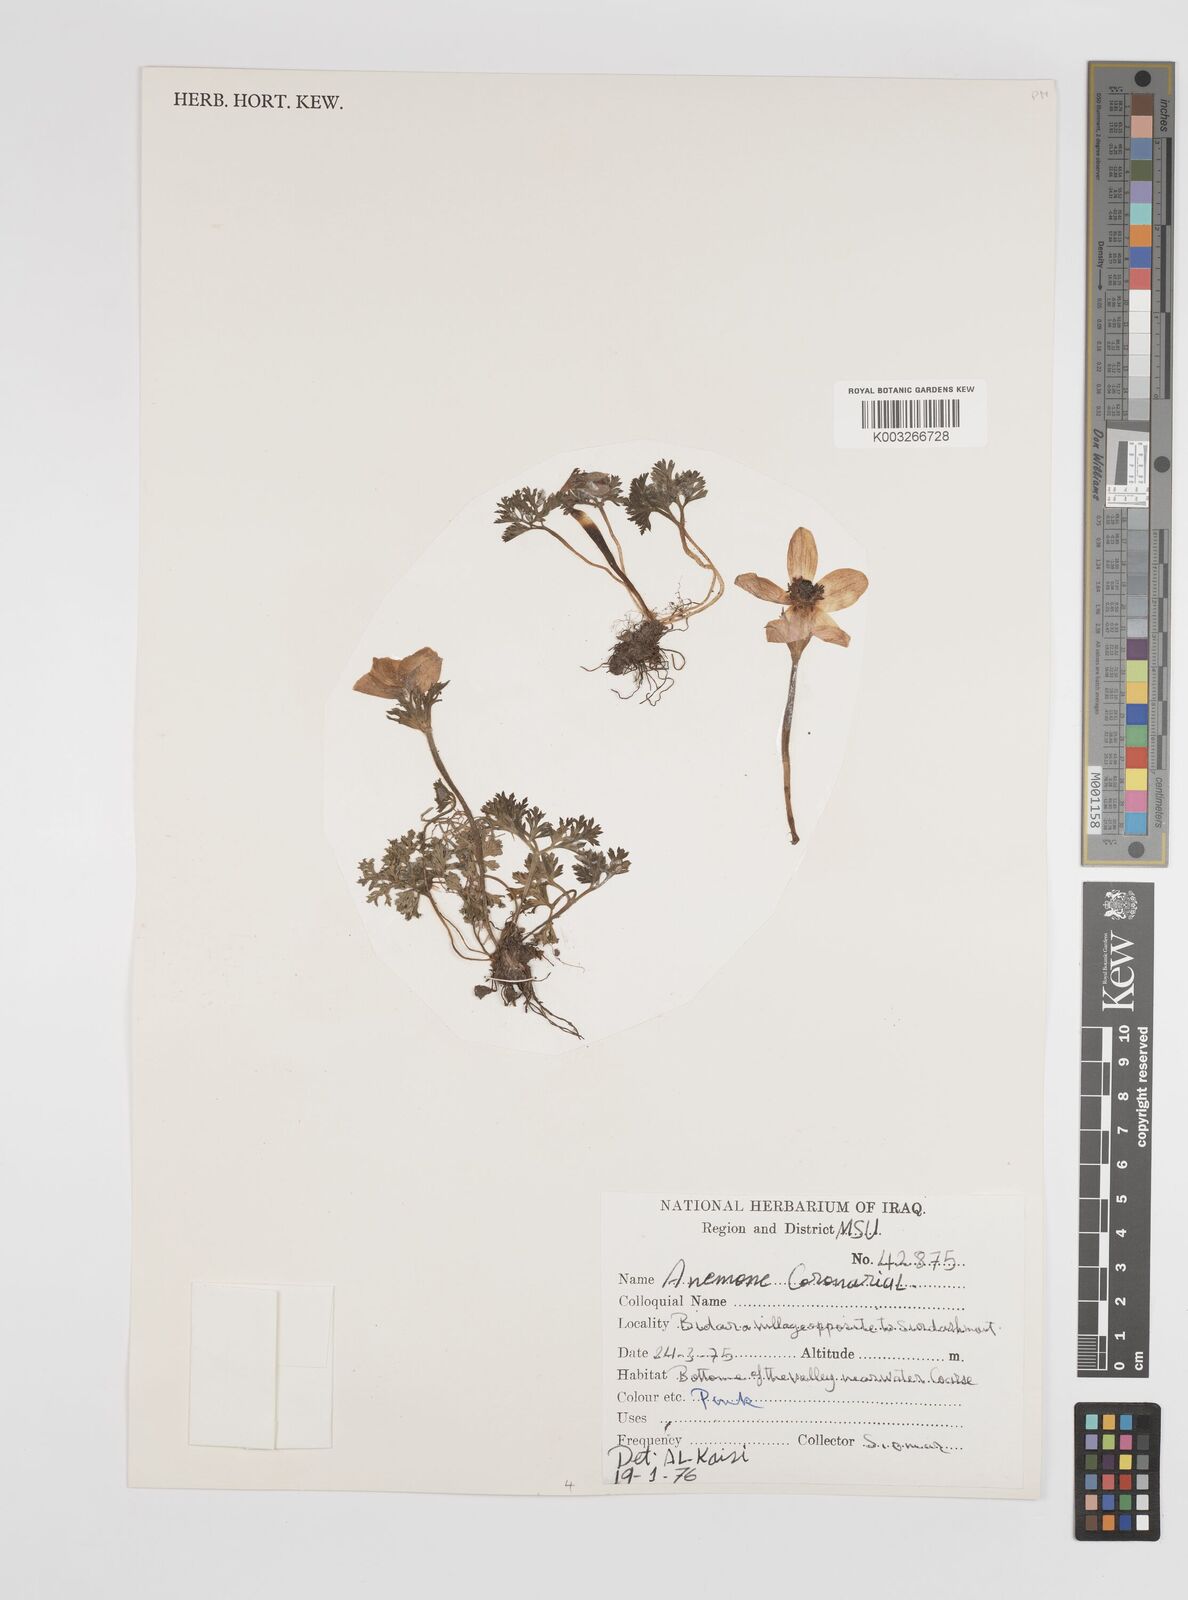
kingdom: Plantae
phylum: Tracheophyta
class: Magnoliopsida
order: Ranunculales
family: Ranunculaceae
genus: Anemone
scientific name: Anemone coronaria
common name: Poppy anemone
